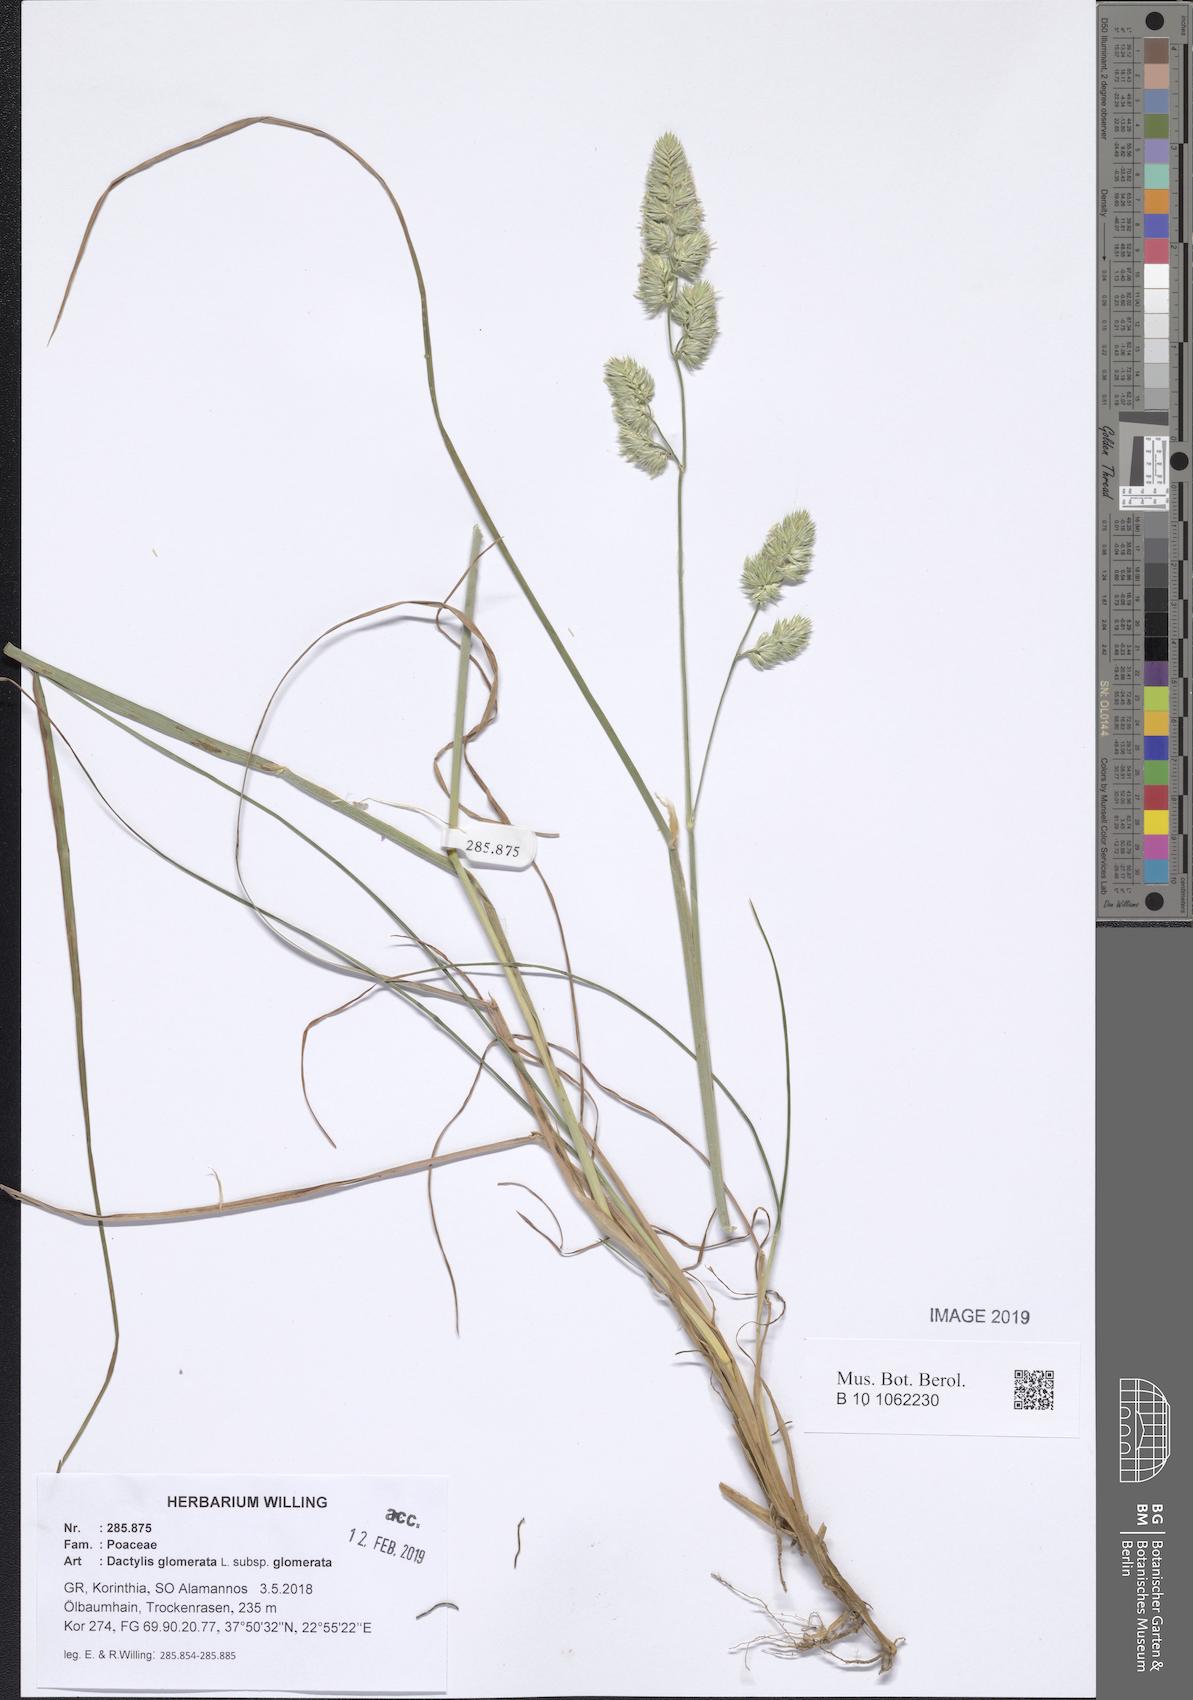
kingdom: Plantae
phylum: Tracheophyta
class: Liliopsida
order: Poales
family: Poaceae
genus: Dactylis
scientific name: Dactylis glomerata
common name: Orchardgrass
